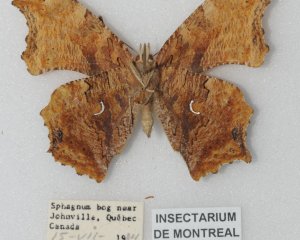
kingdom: Animalia
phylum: Arthropoda
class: Insecta
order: Lepidoptera
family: Nymphalidae
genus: Polygonia
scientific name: Polygonia interrogationis
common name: Question Mark
